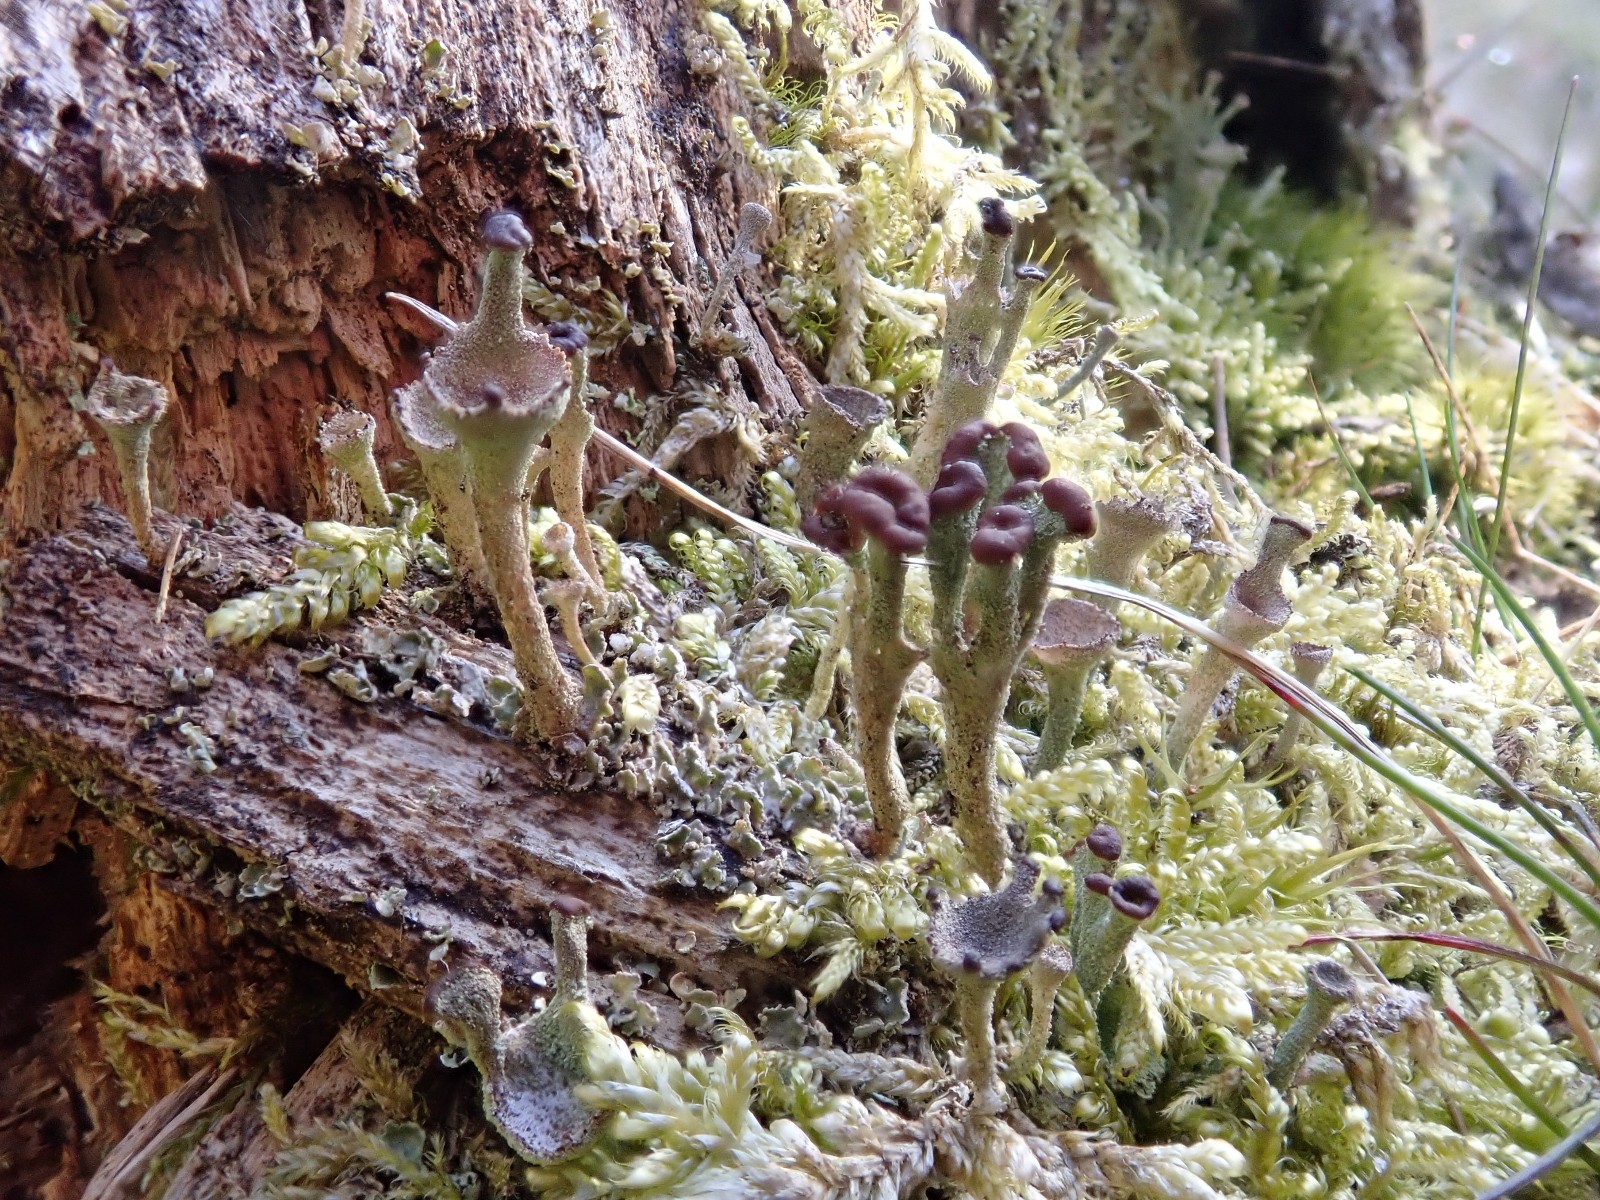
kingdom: Fungi
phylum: Ascomycota
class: Lecanoromycetes
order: Lecanorales
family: Cladoniaceae
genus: Cladonia
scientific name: Cladonia
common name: brungrøn bægerlav
